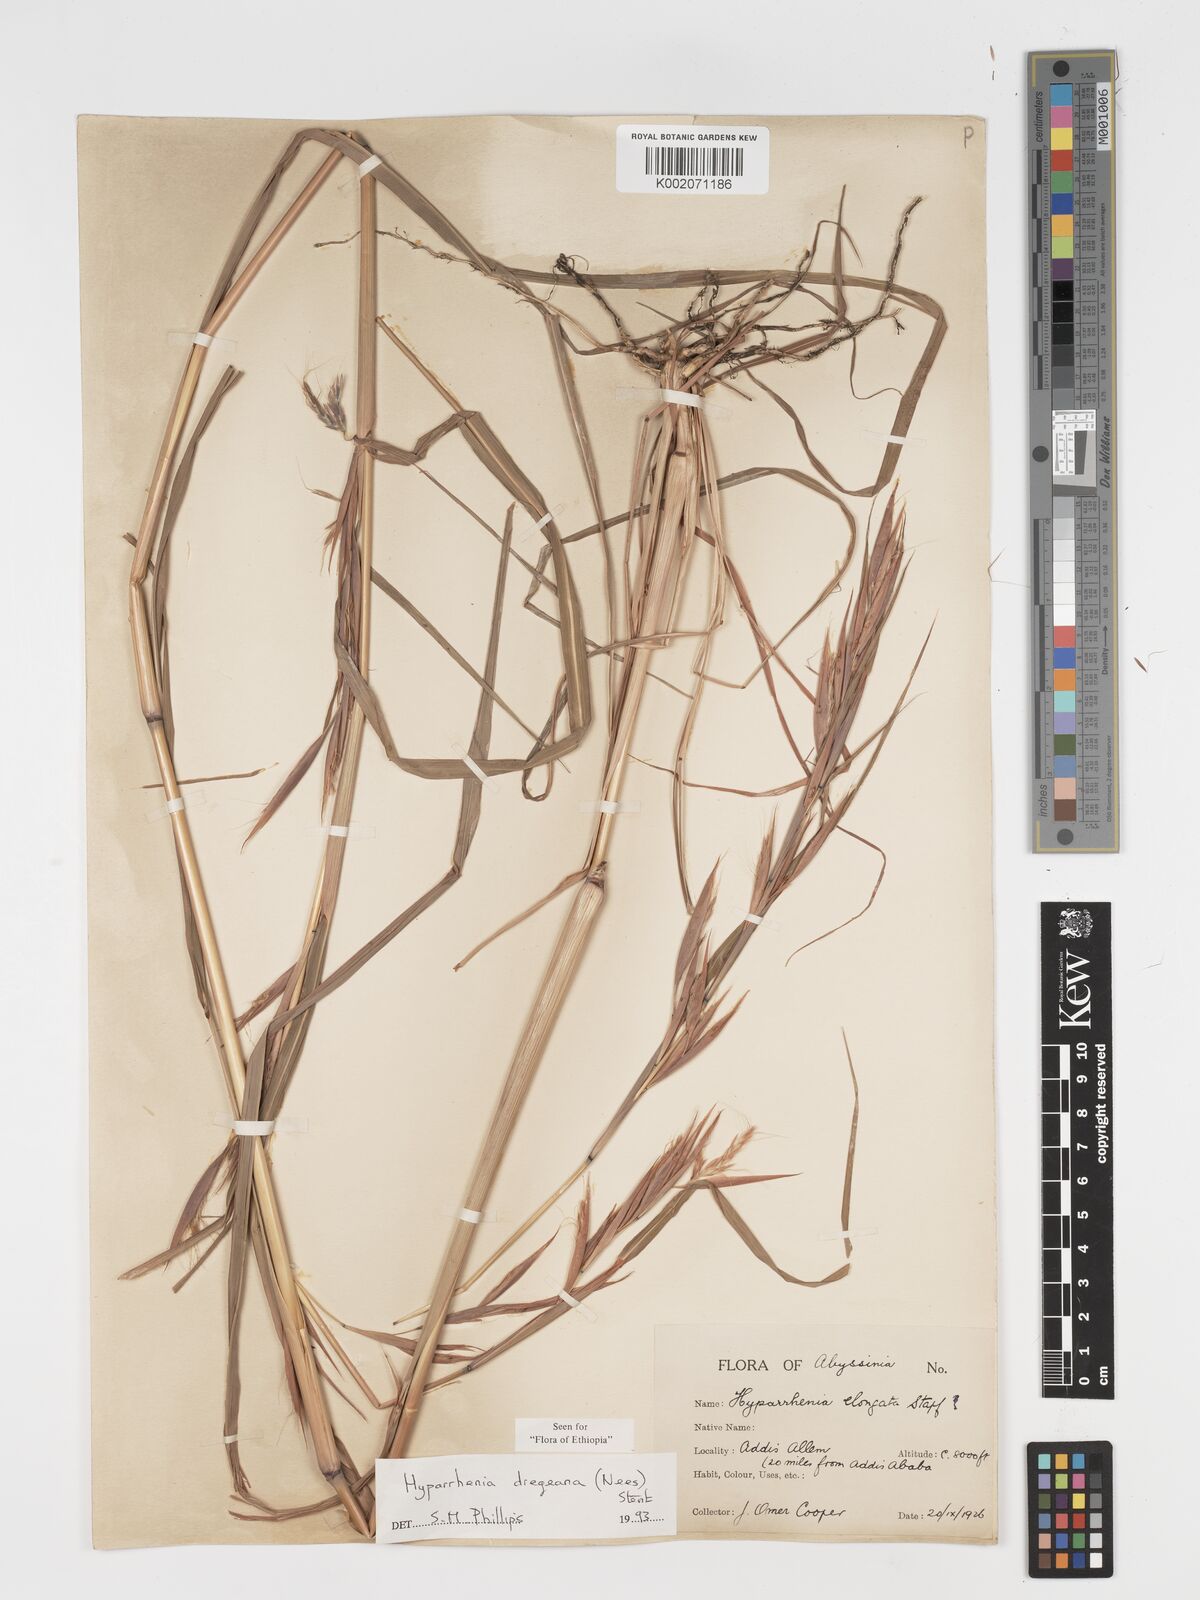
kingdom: Plantae
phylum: Tracheophyta
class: Liliopsida
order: Poales
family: Poaceae
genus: Hyparrhenia
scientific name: Hyparrhenia dregeana
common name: Silky thatching grass
